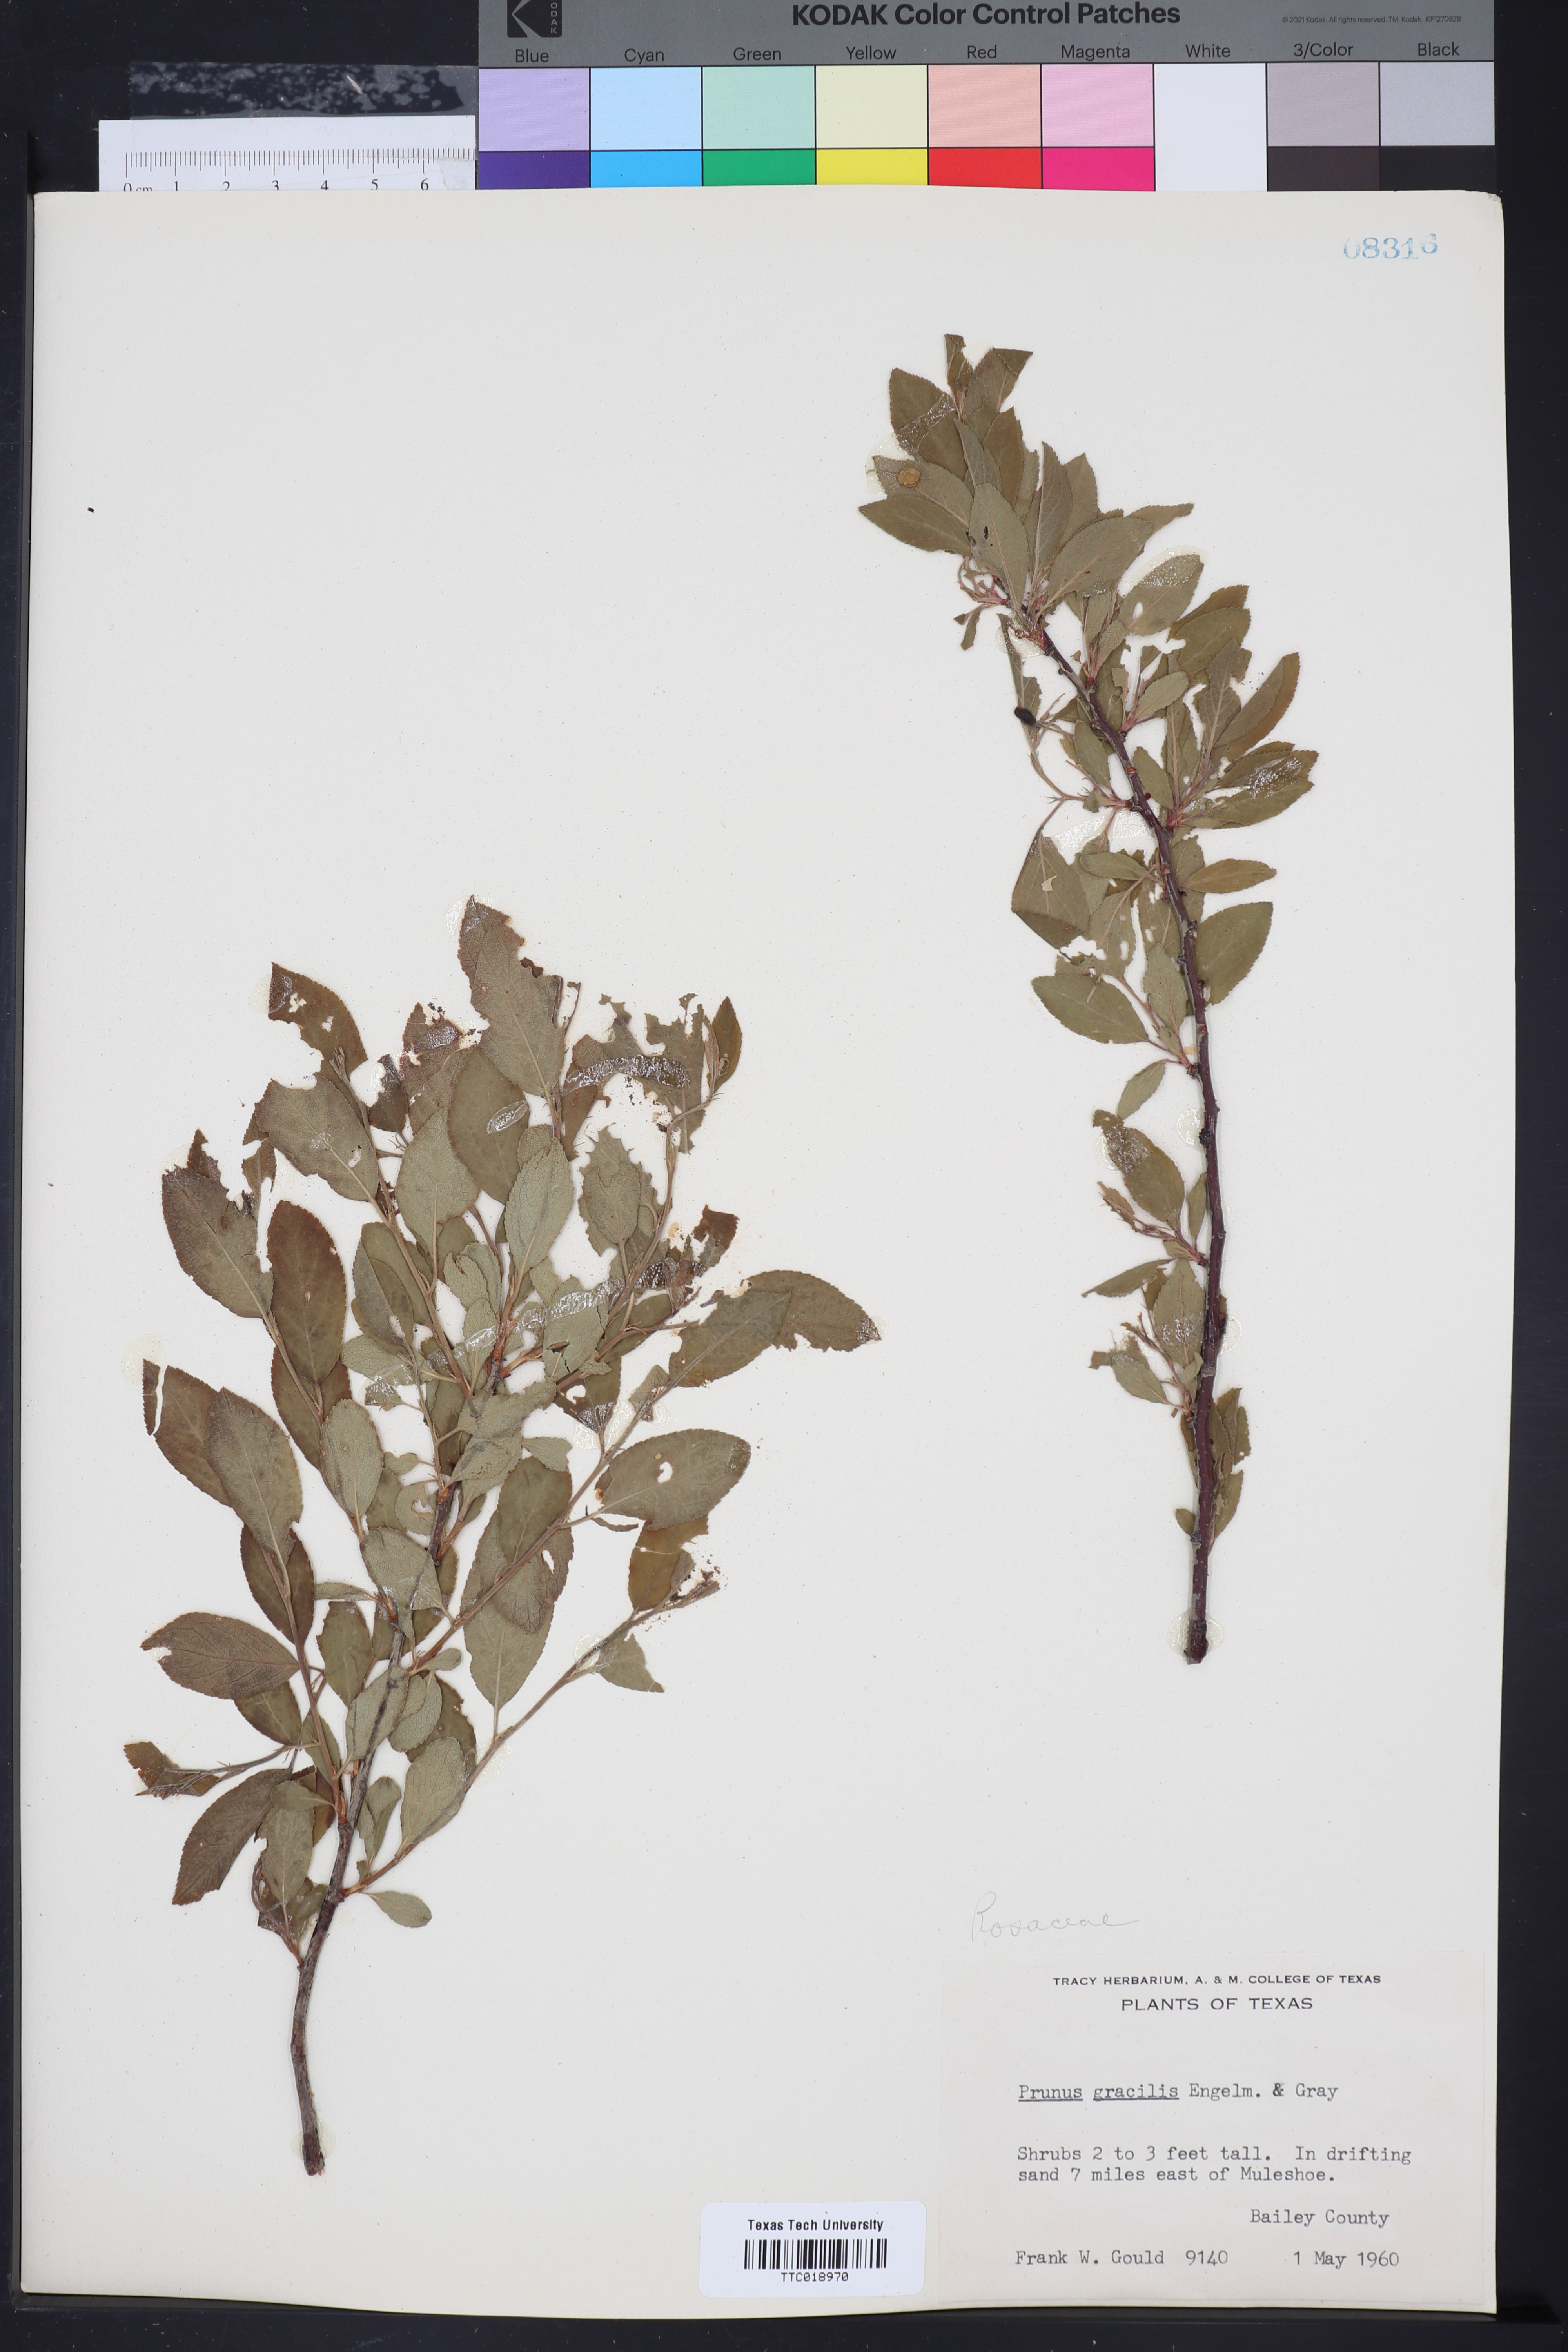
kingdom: Plantae
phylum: Tracheophyta
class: Magnoliopsida
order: Rosales
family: Rosaceae
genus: Prunus
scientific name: Prunus gracilis
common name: Oklahoma plum
